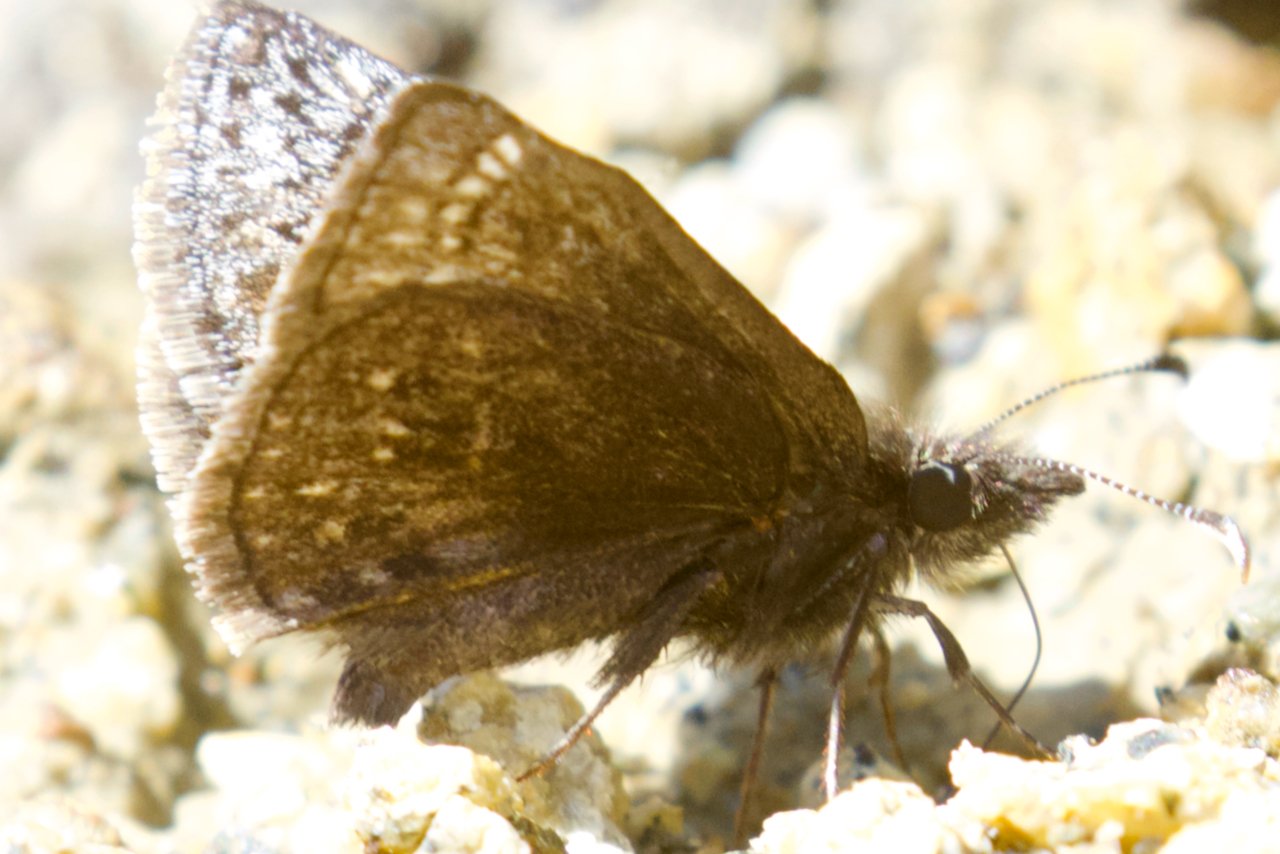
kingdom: Animalia
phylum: Arthropoda
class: Insecta
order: Lepidoptera
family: Hesperiidae
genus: Erynnis
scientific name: Erynnis icelus
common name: Dreamy Duskywing
